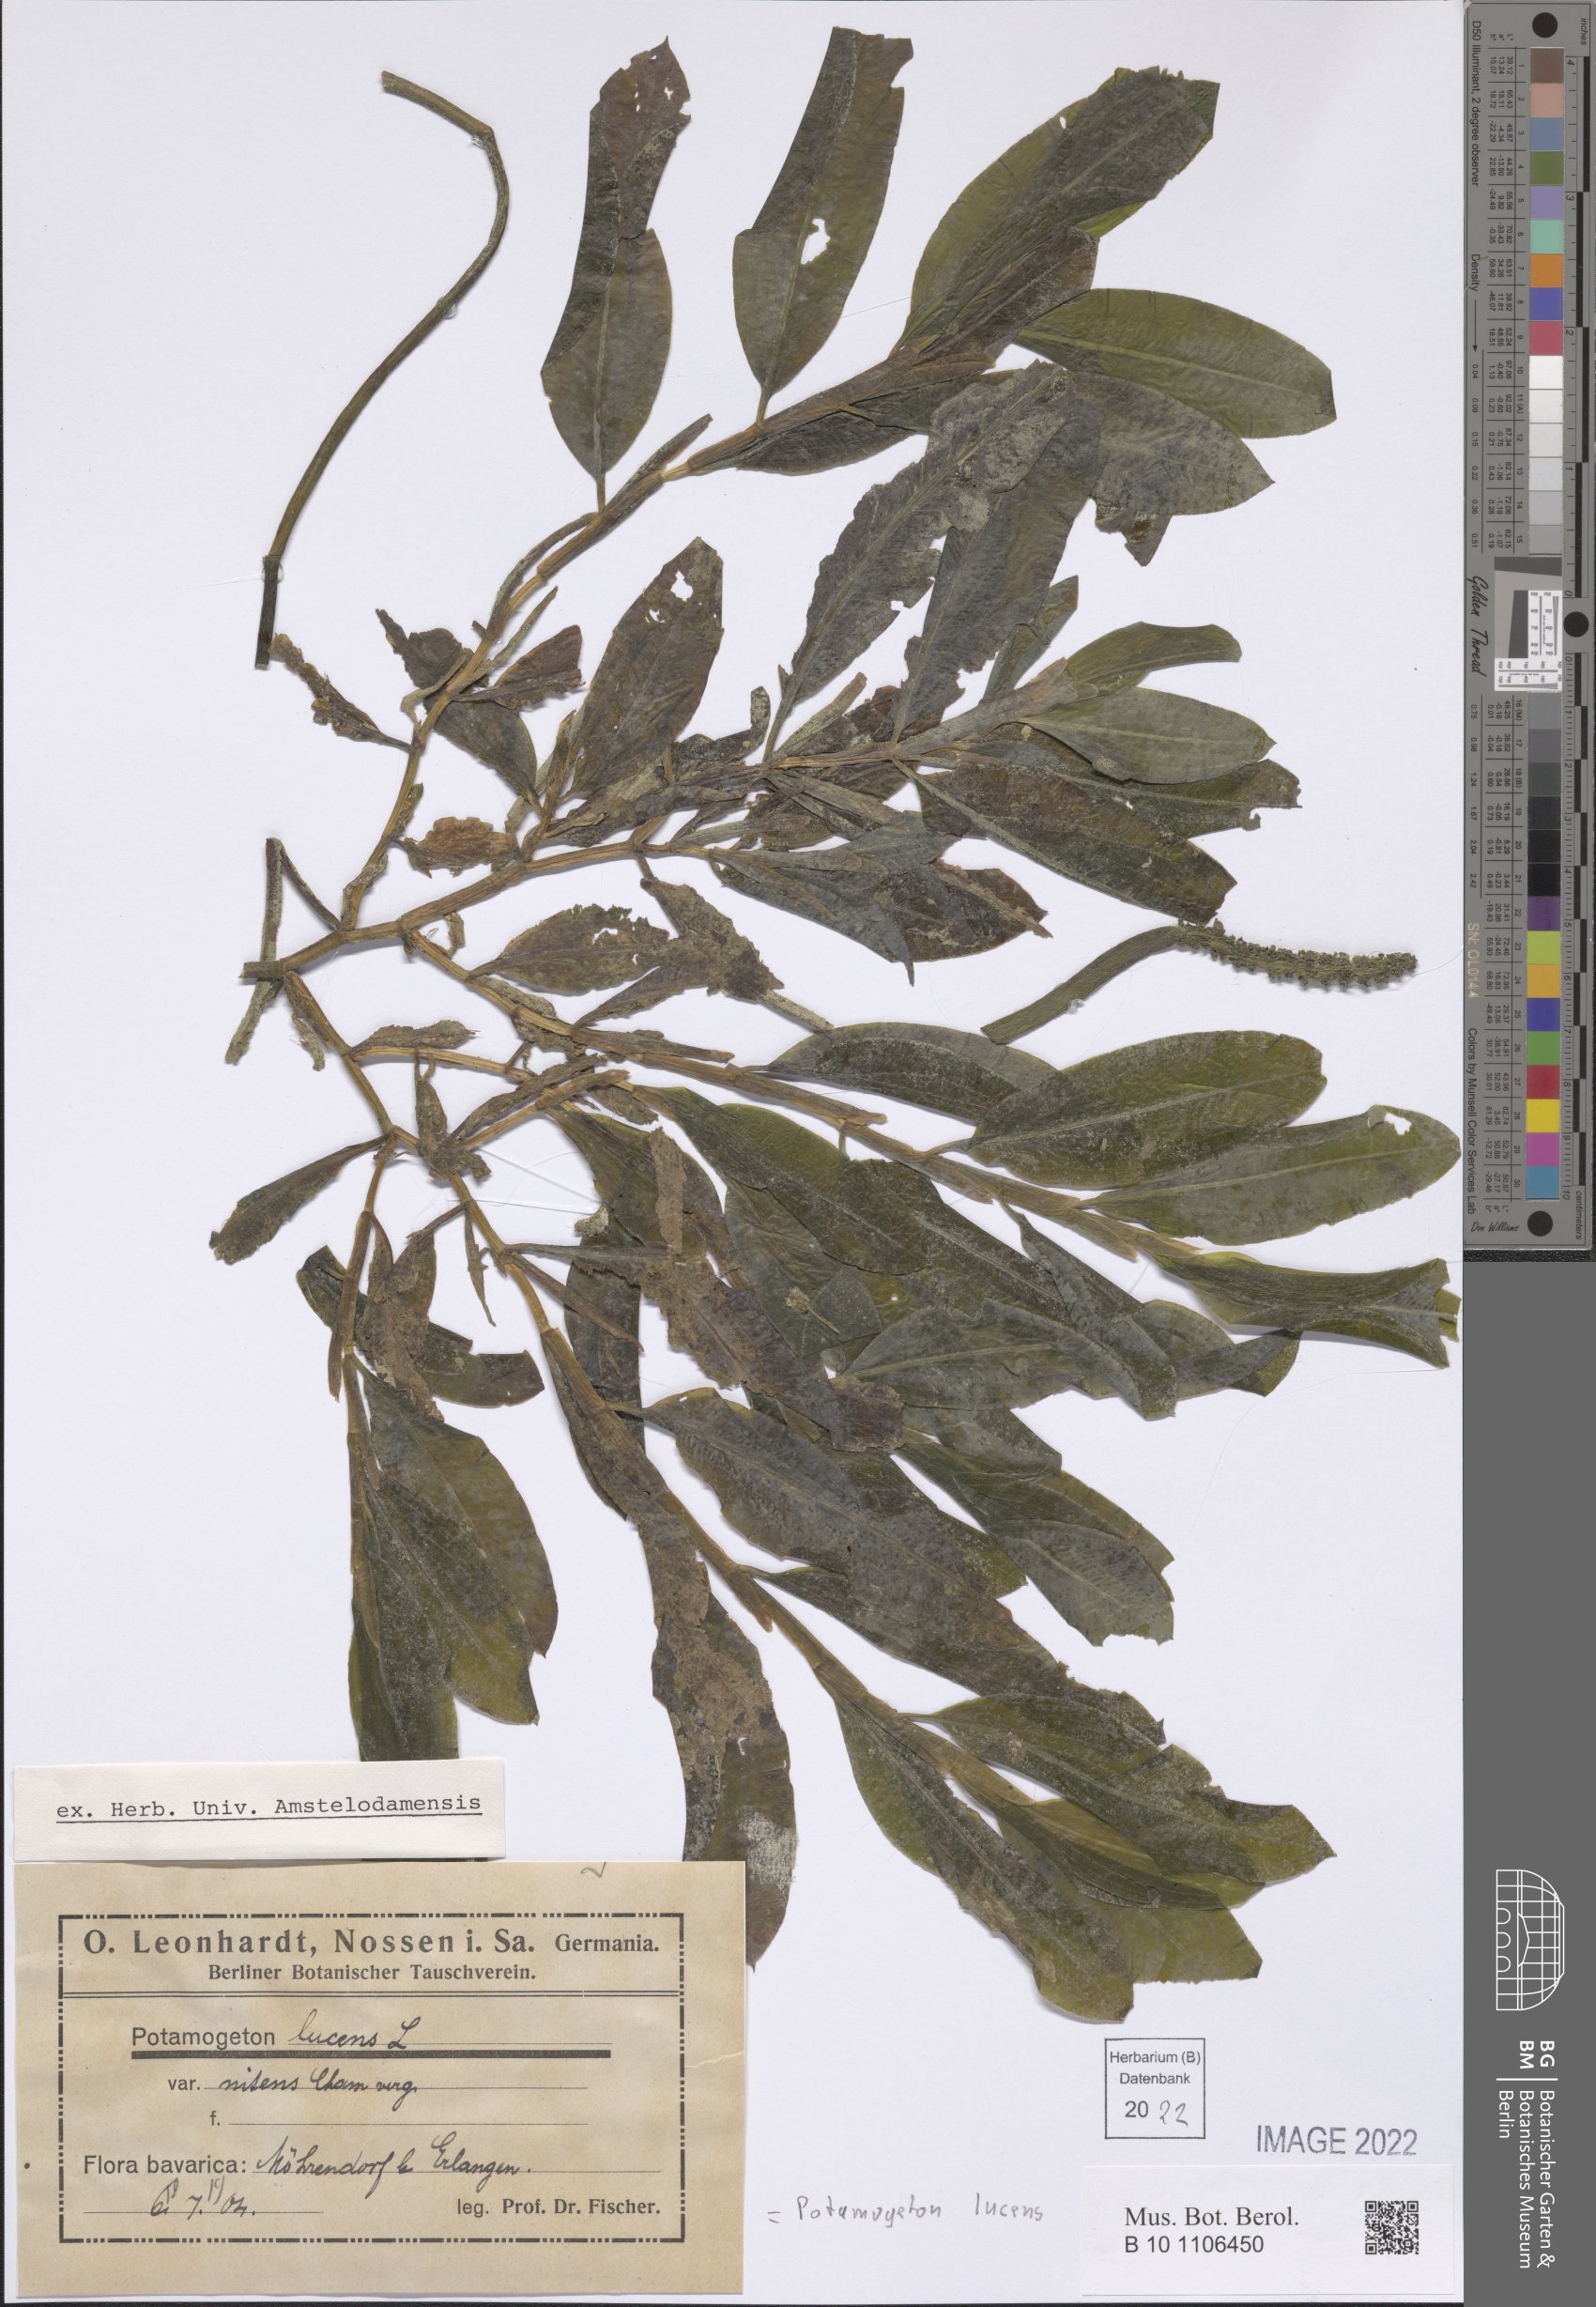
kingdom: Plantae
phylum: Tracheophyta
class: Liliopsida
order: Alismatales
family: Potamogetonaceae
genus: Potamogeton
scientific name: Potamogeton lucens
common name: Shining pondweed
